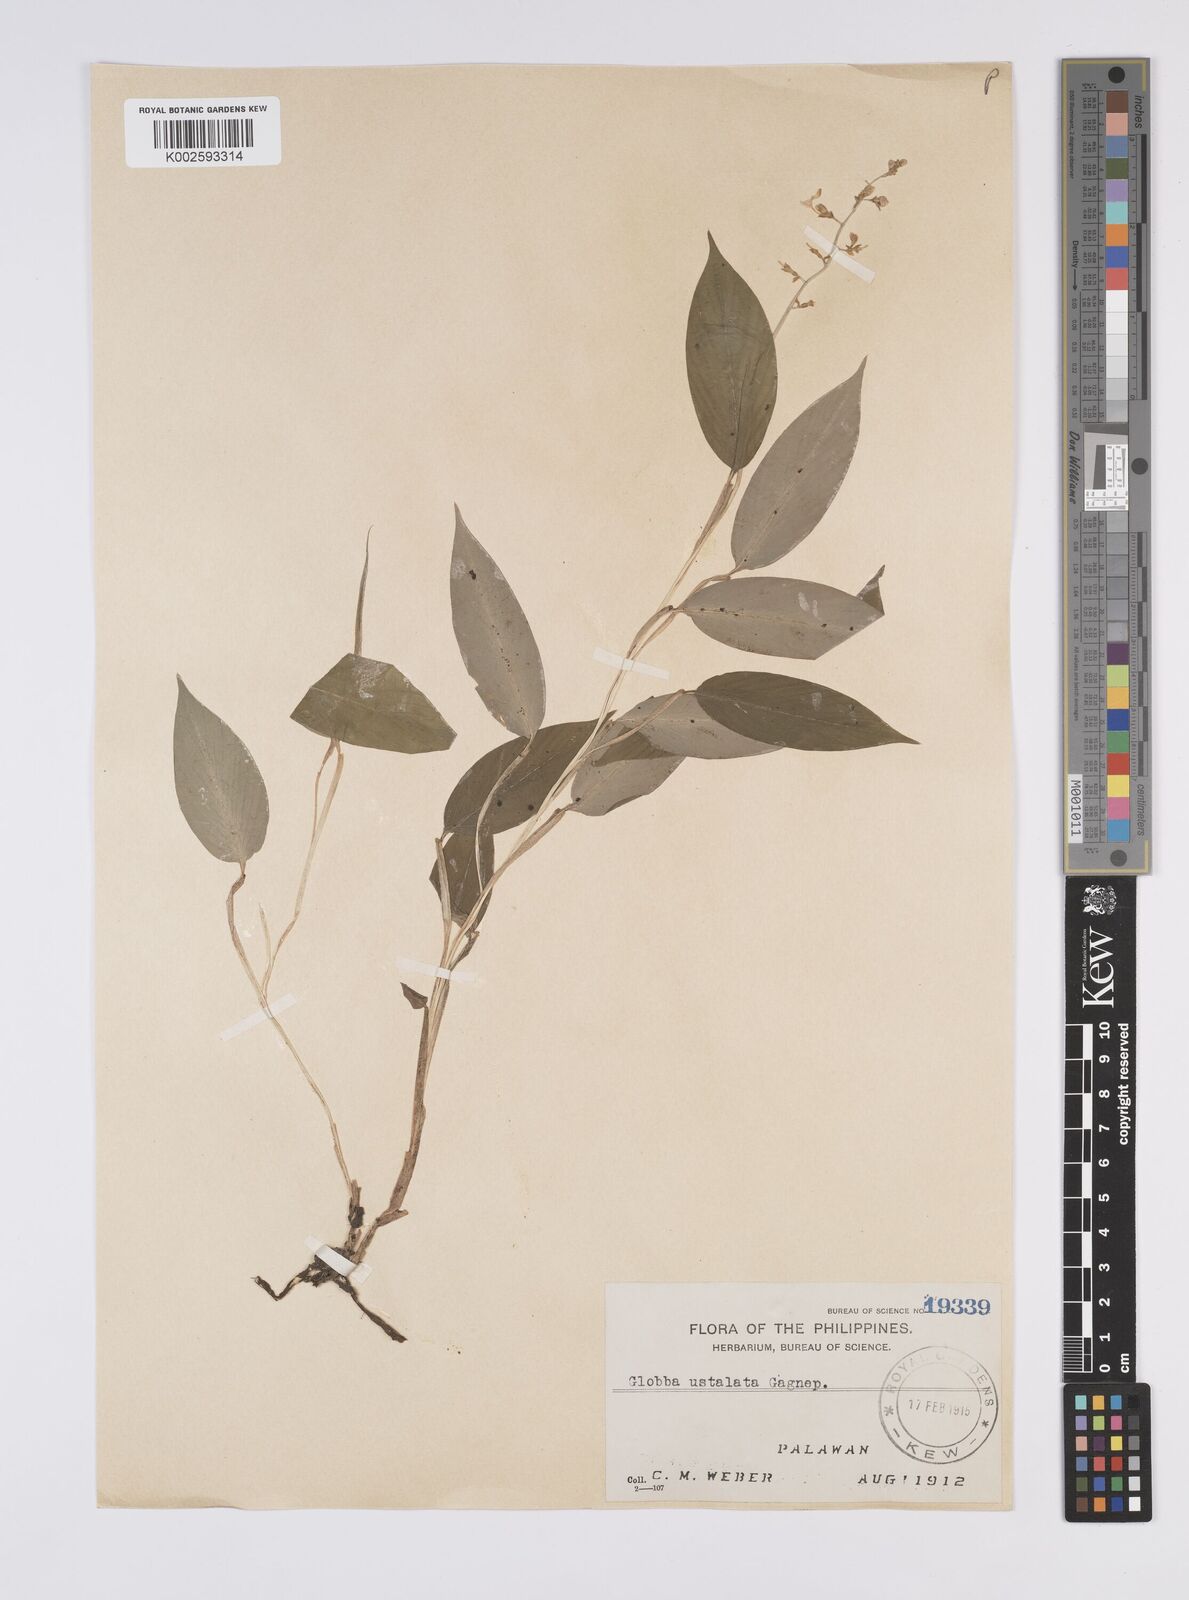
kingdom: Plantae
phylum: Tracheophyta
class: Liliopsida
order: Zingiberales
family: Zingiberaceae
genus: Globba
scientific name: Globba ustulata
